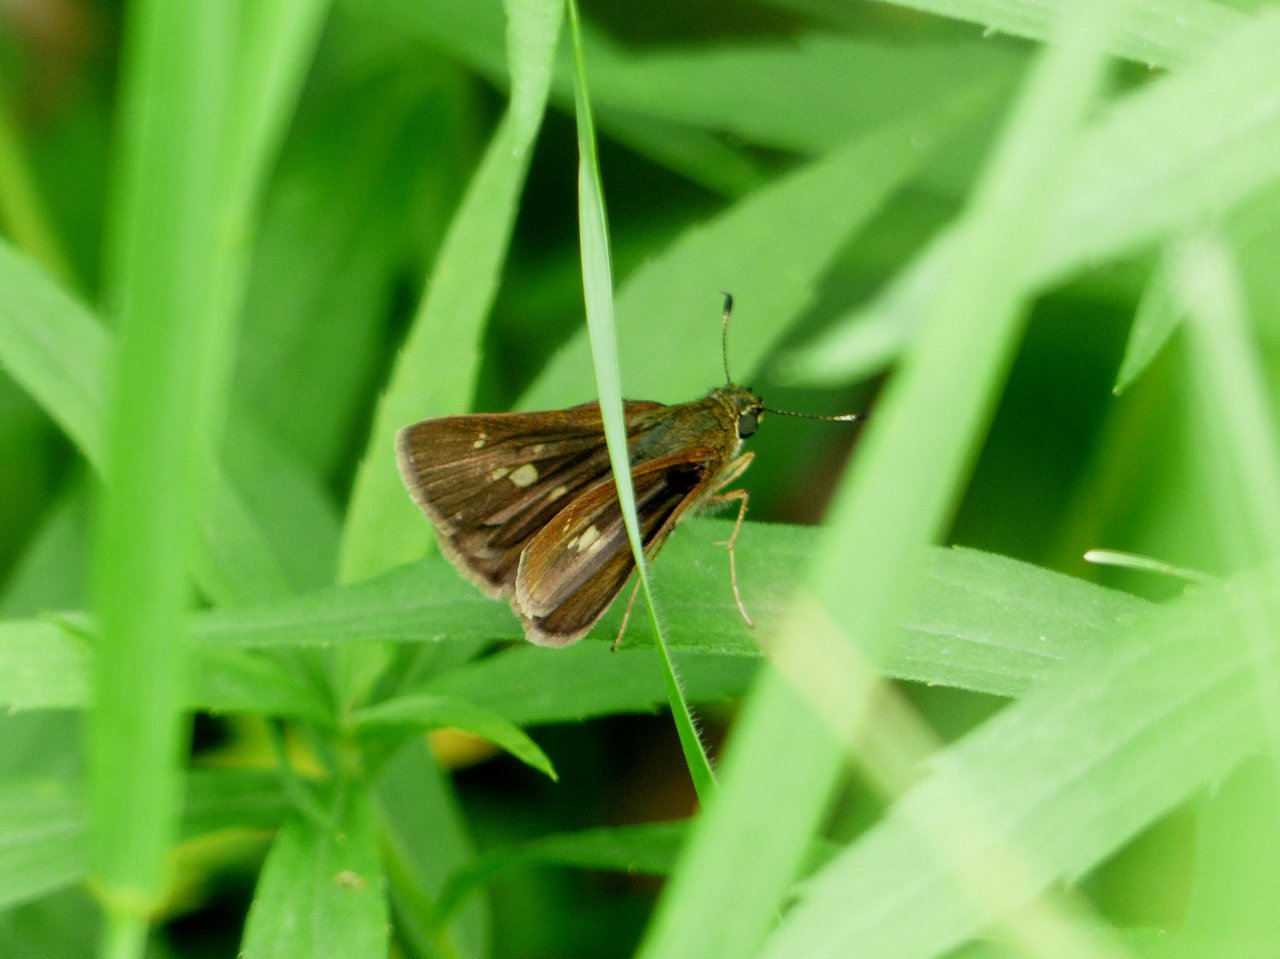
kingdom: Animalia
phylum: Arthropoda
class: Insecta
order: Lepidoptera
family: Hesperiidae
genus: Vernia
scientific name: Vernia verna
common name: Little Glassywing
